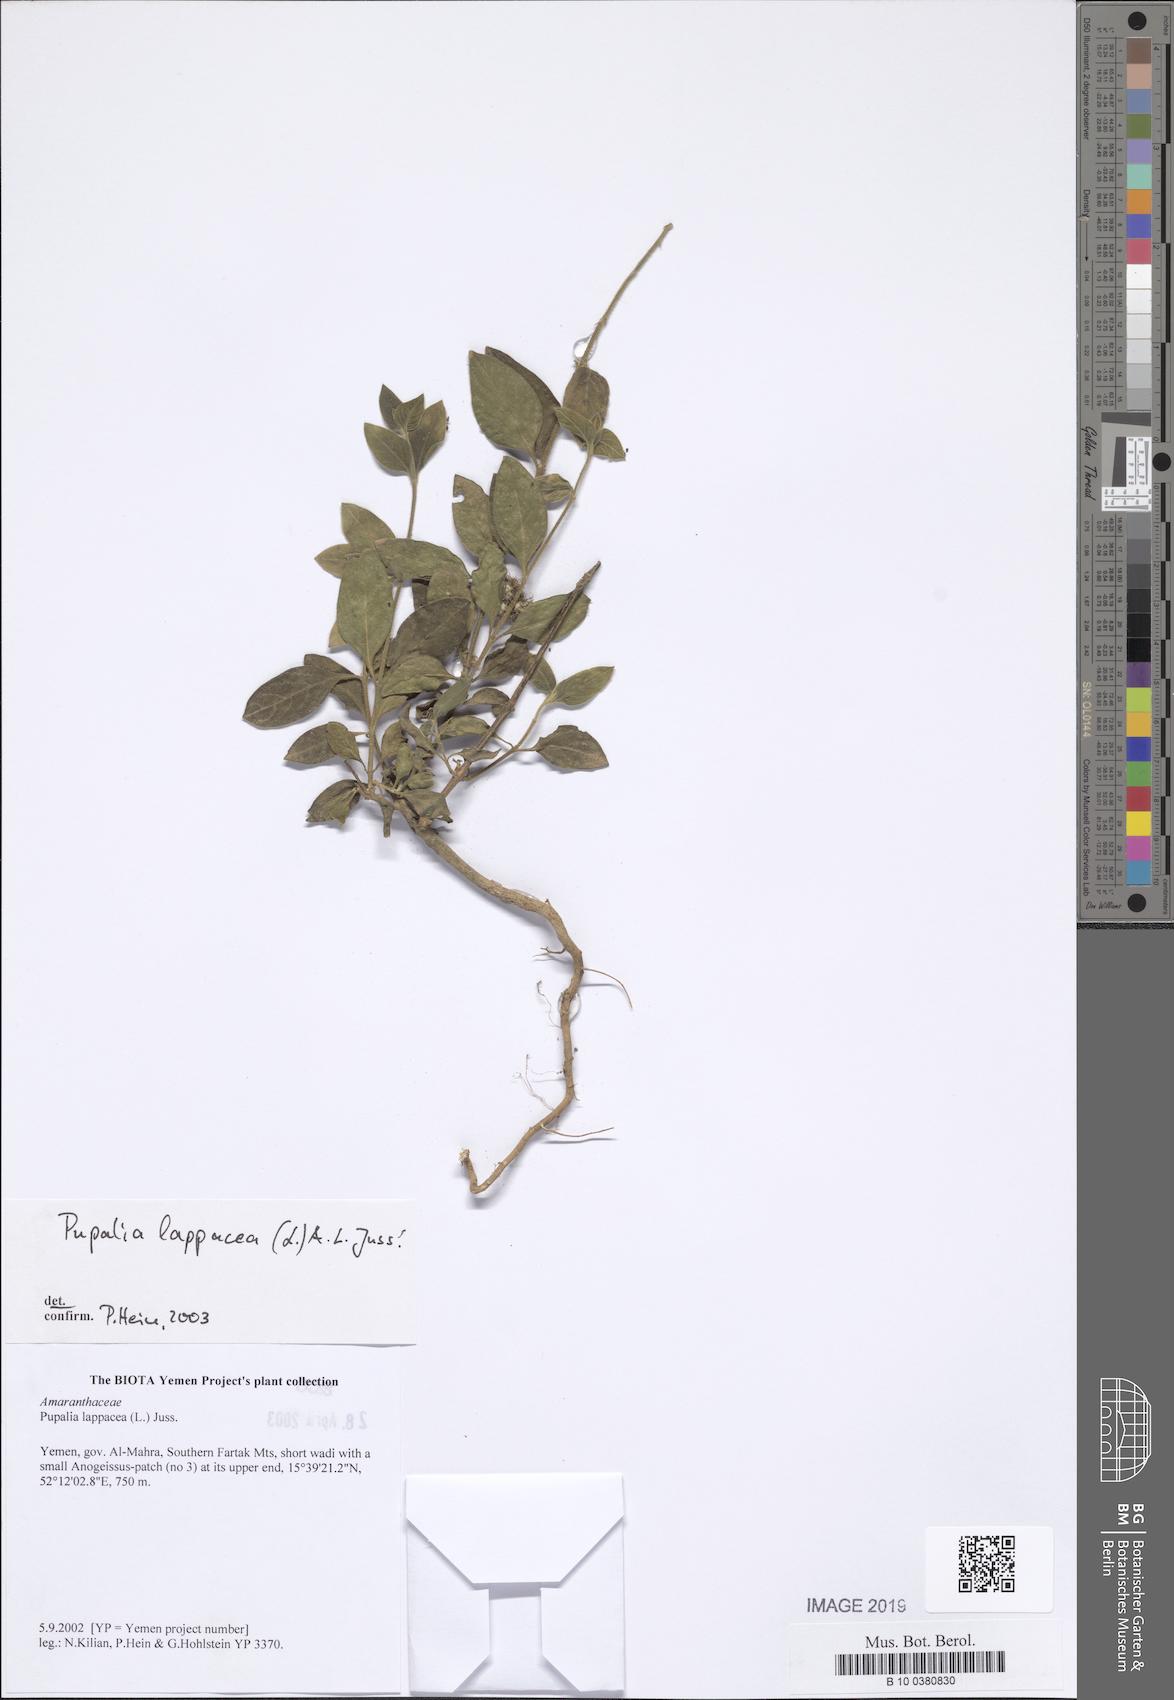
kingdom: Plantae
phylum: Tracheophyta
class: Magnoliopsida
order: Caryophyllales
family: Amaranthaceae
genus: Pupalia
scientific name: Pupalia lappacea
